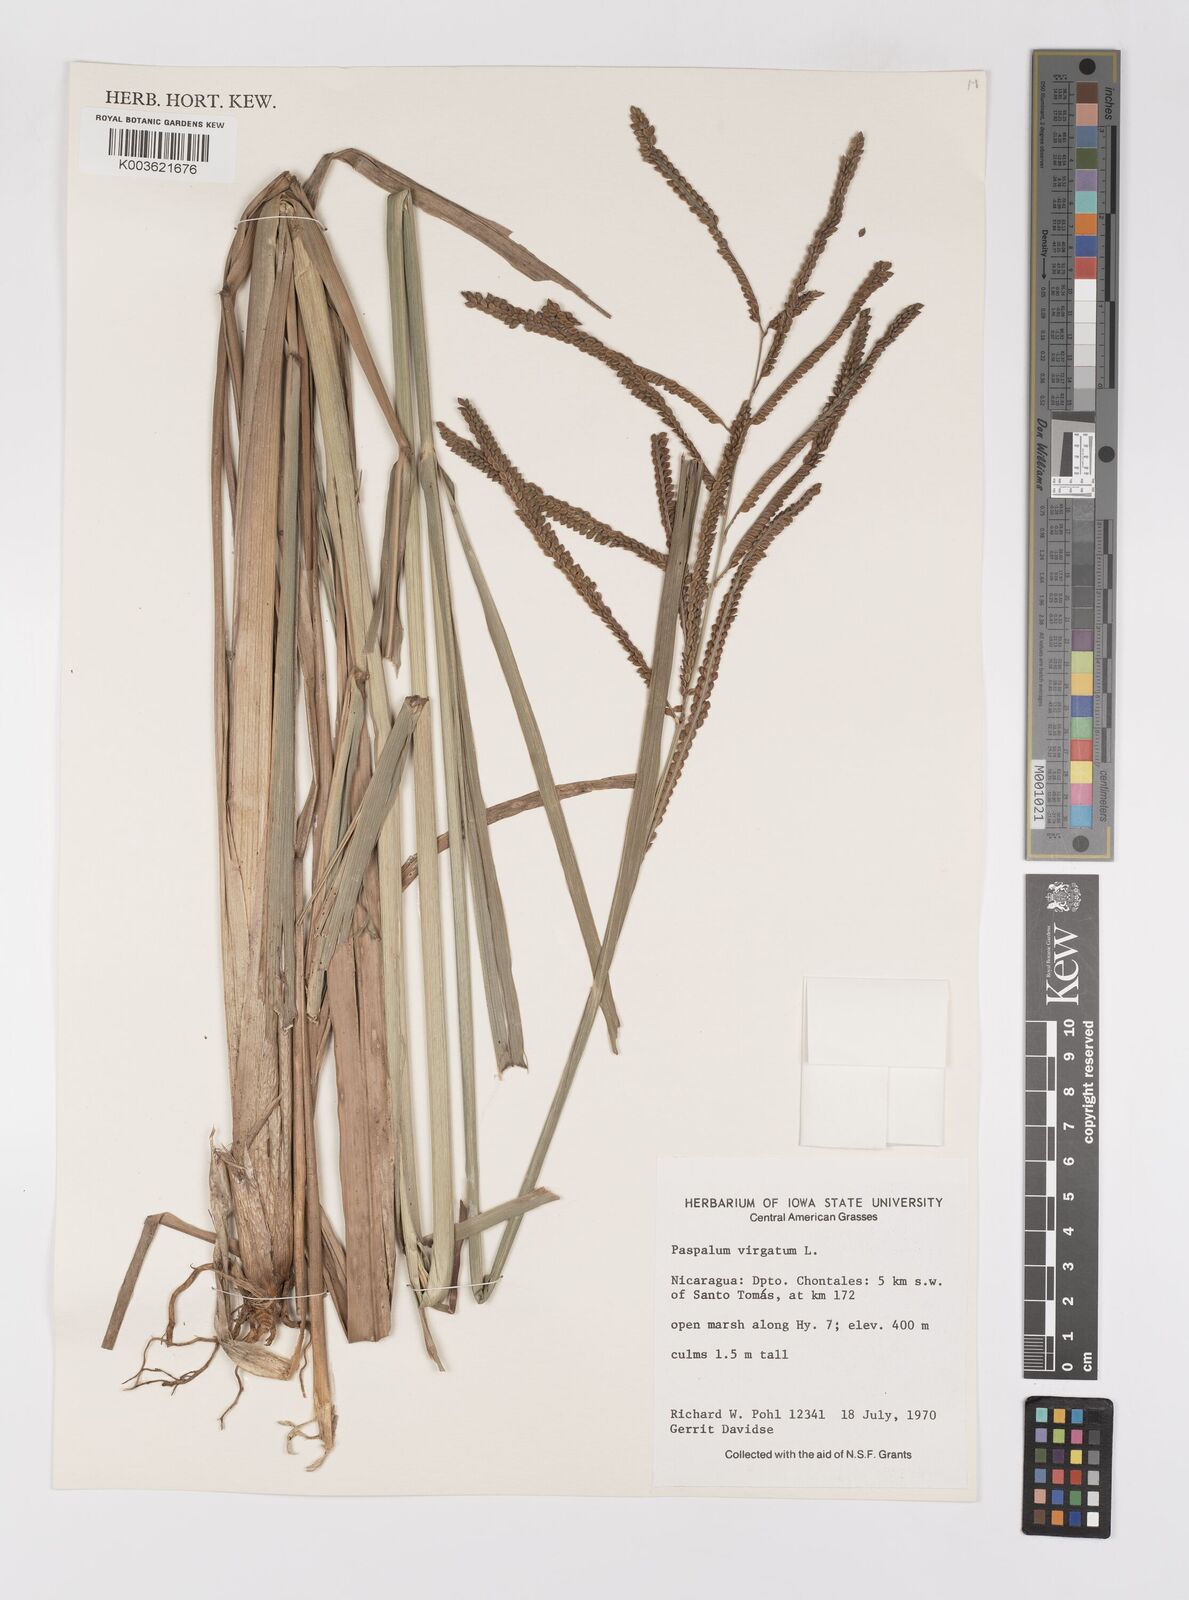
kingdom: Plantae
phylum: Tracheophyta
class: Liliopsida
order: Poales
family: Poaceae
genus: Paspalum
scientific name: Paspalum virgatum
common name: Talquezal
